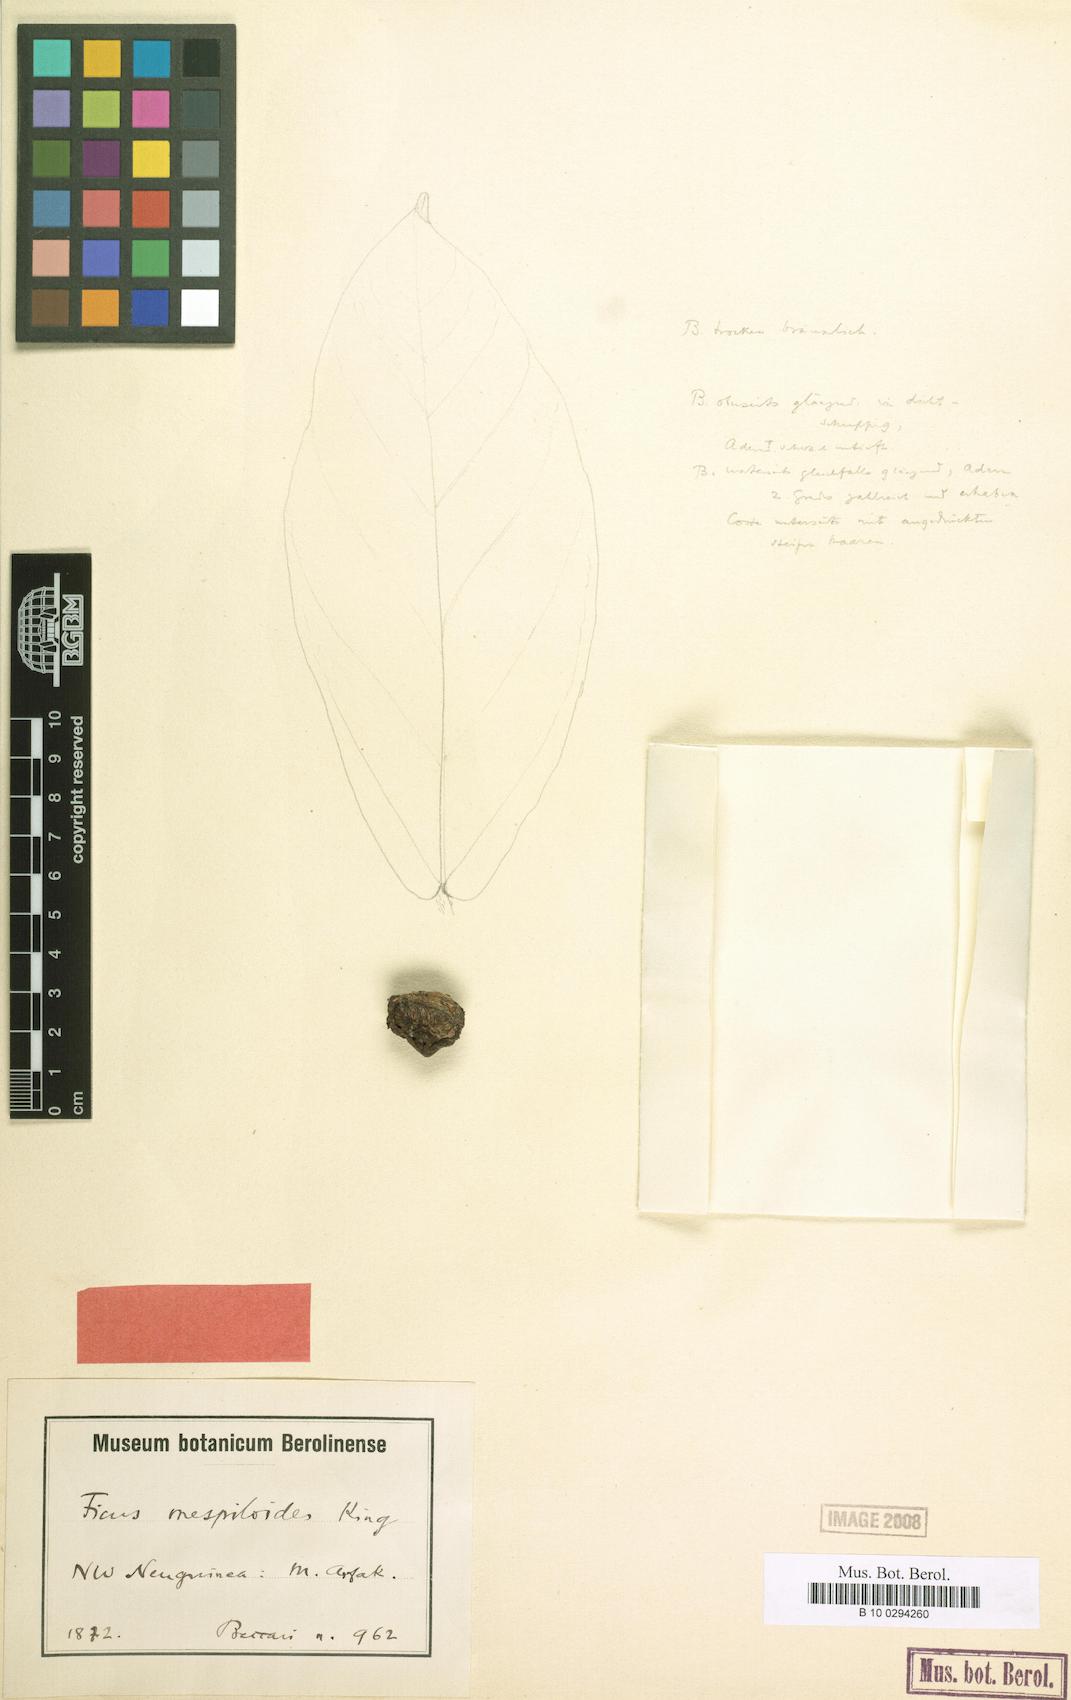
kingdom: Plantae
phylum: Tracheophyta
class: Magnoliopsida
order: Rosales
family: Moraceae
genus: Ficus
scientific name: Ficus baeuerlenii
